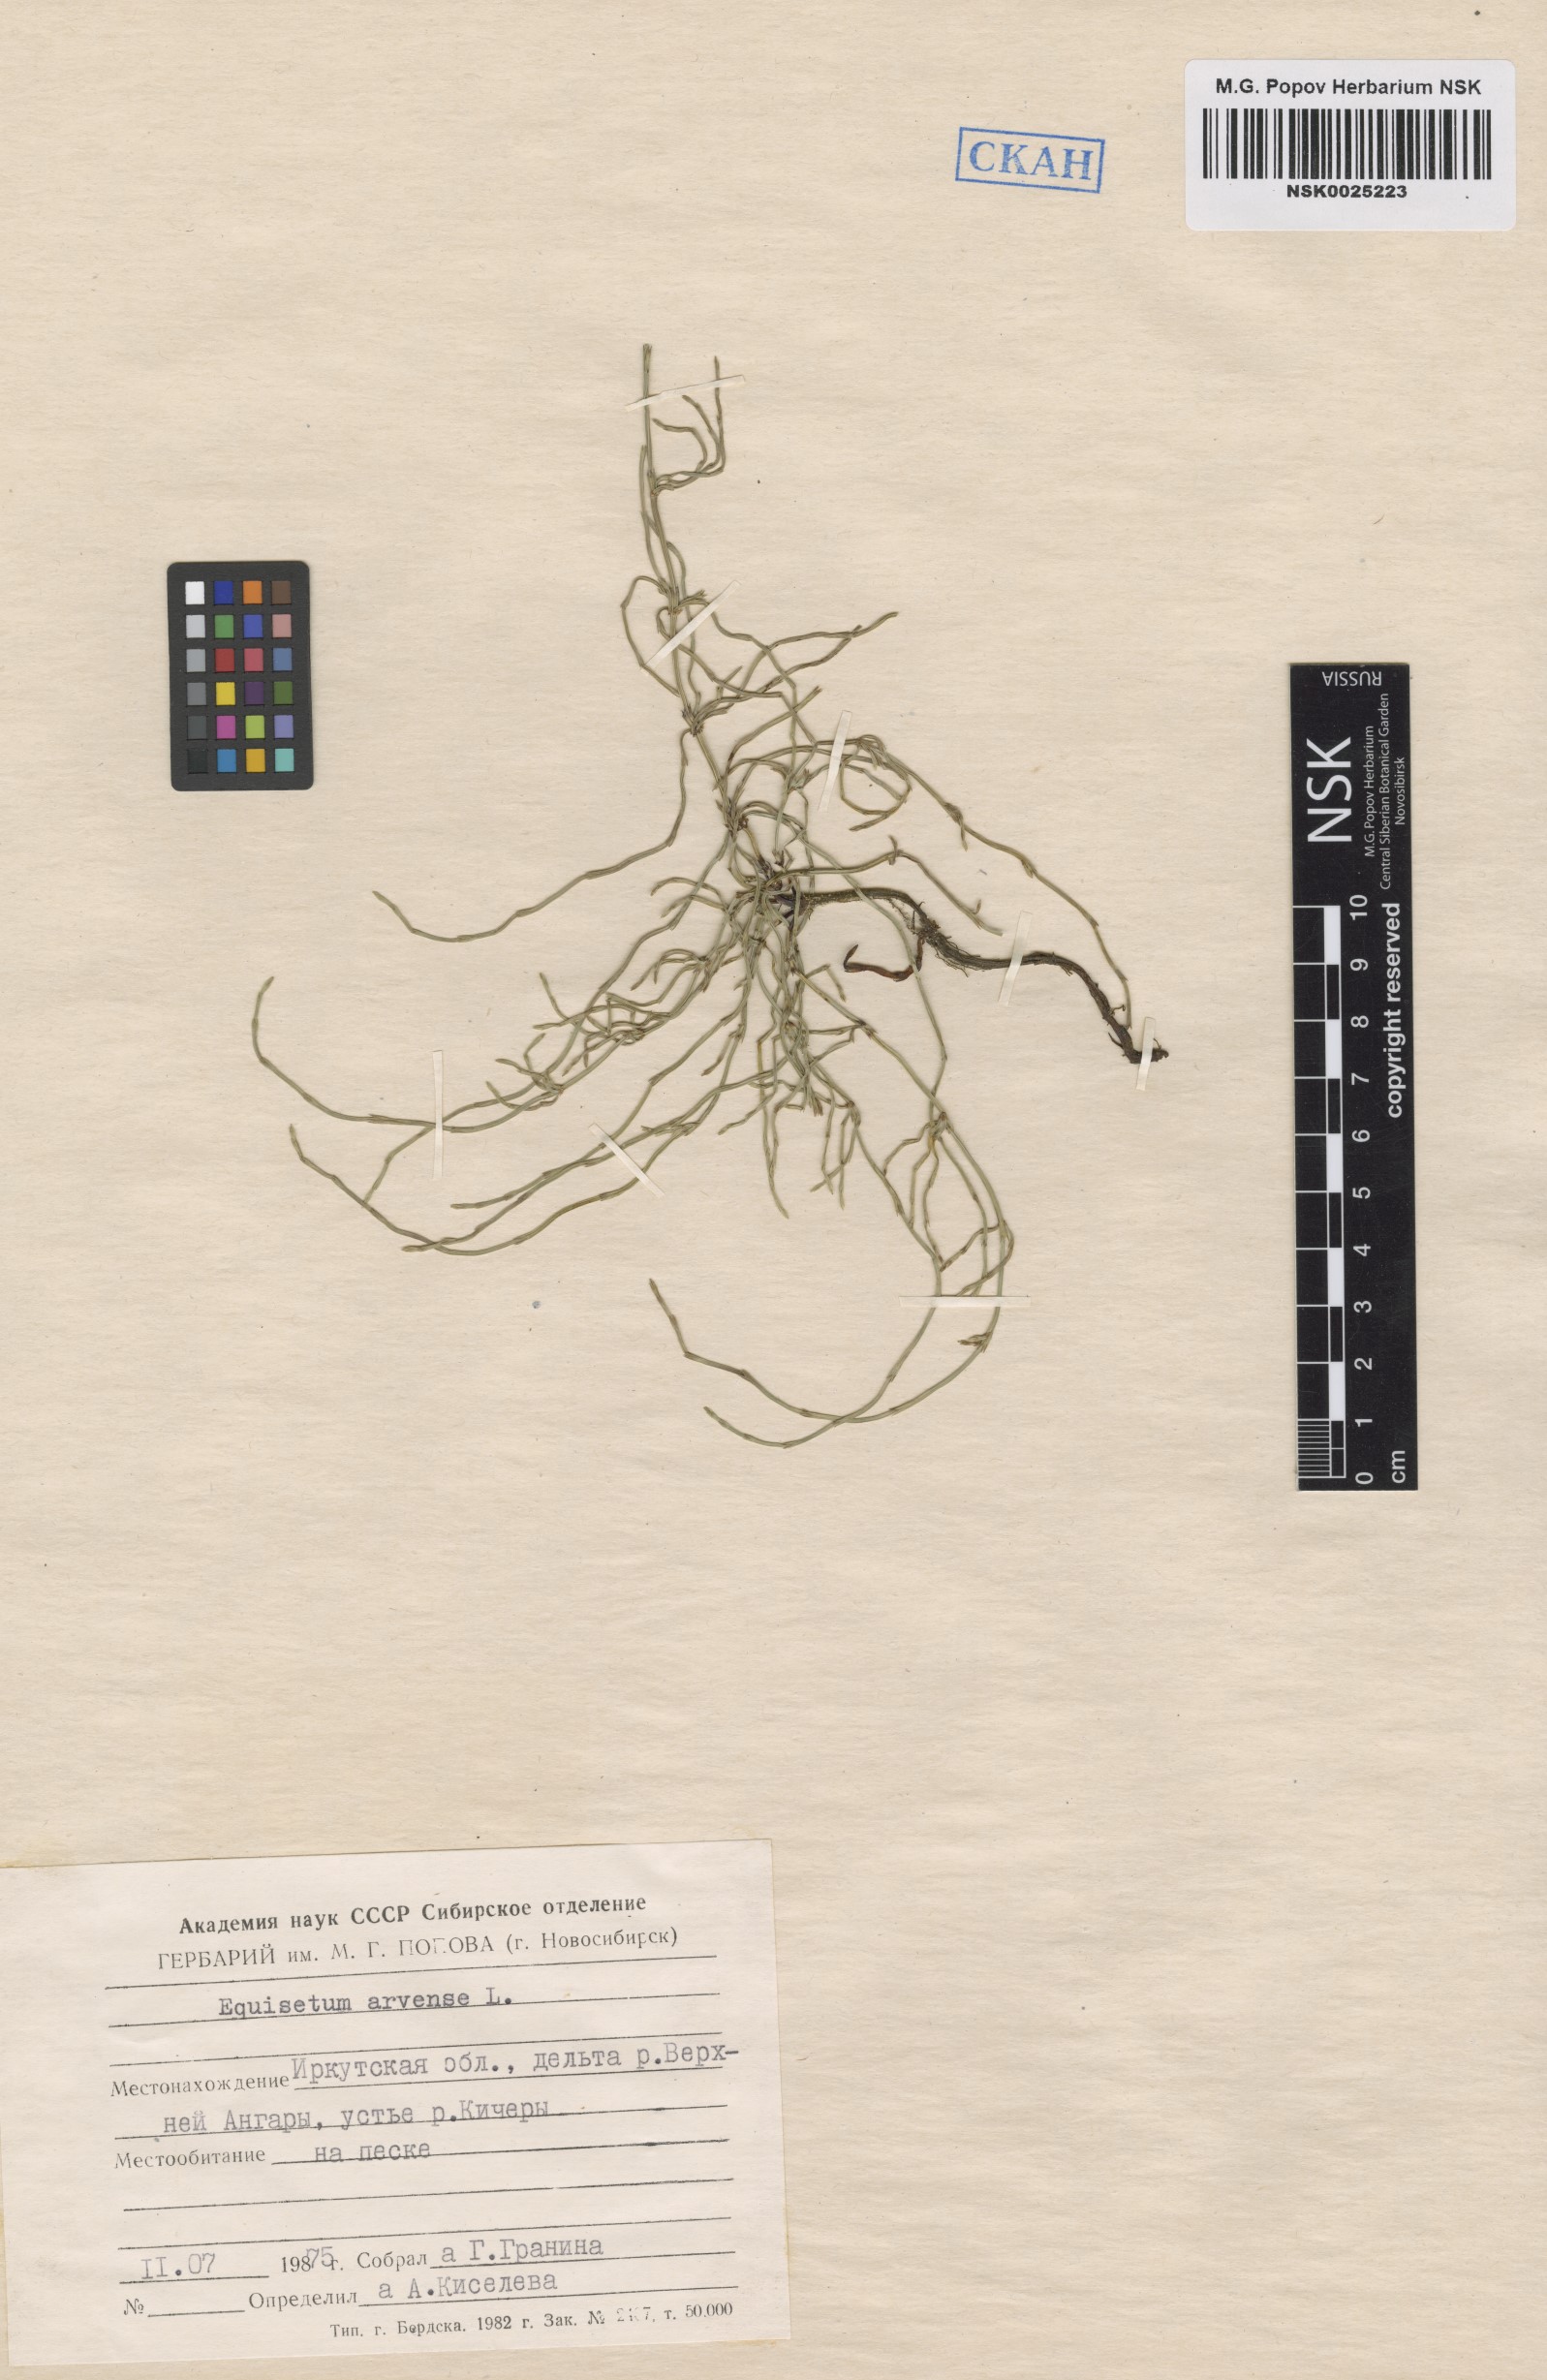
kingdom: Plantae
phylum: Tracheophyta
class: Polypodiopsida
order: Equisetales
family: Equisetaceae
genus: Equisetum
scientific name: Equisetum arvense
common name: Field horsetail
